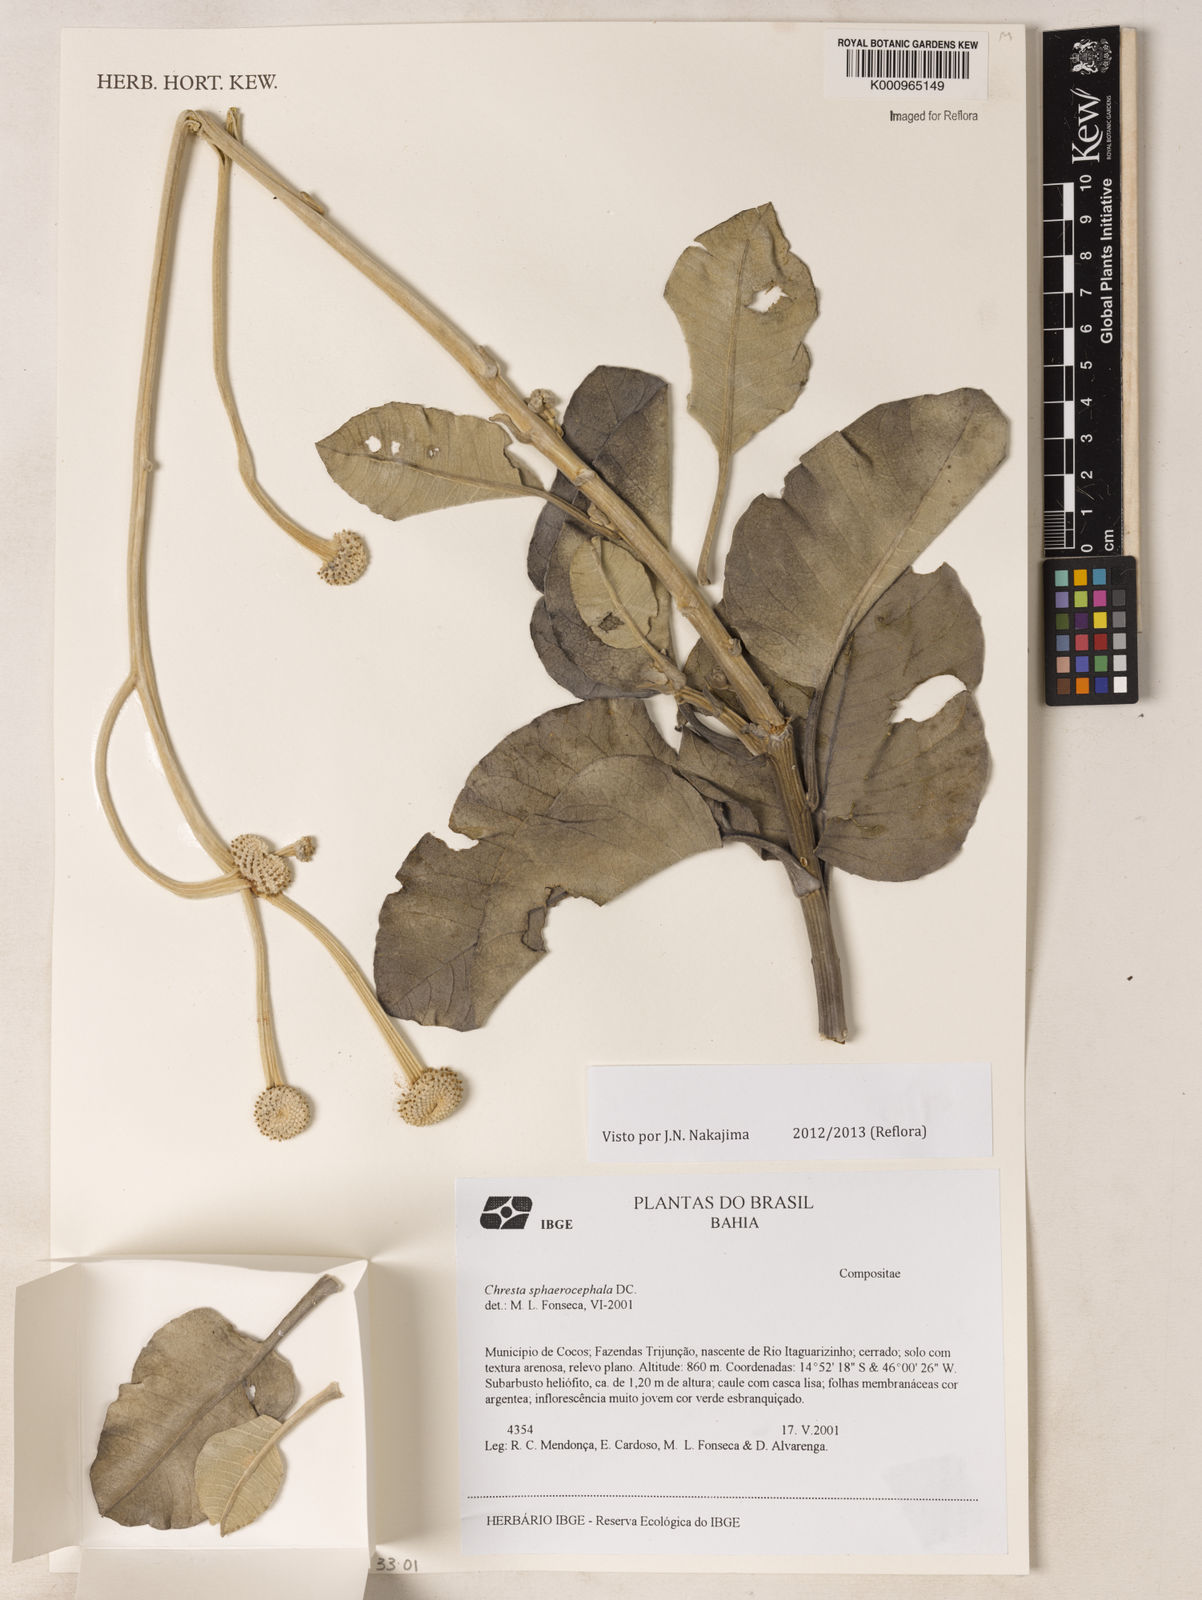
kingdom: Plantae
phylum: Tracheophyta
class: Magnoliopsida
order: Asterales
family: Asteraceae
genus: Chresta
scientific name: Chresta sphaerocephala
